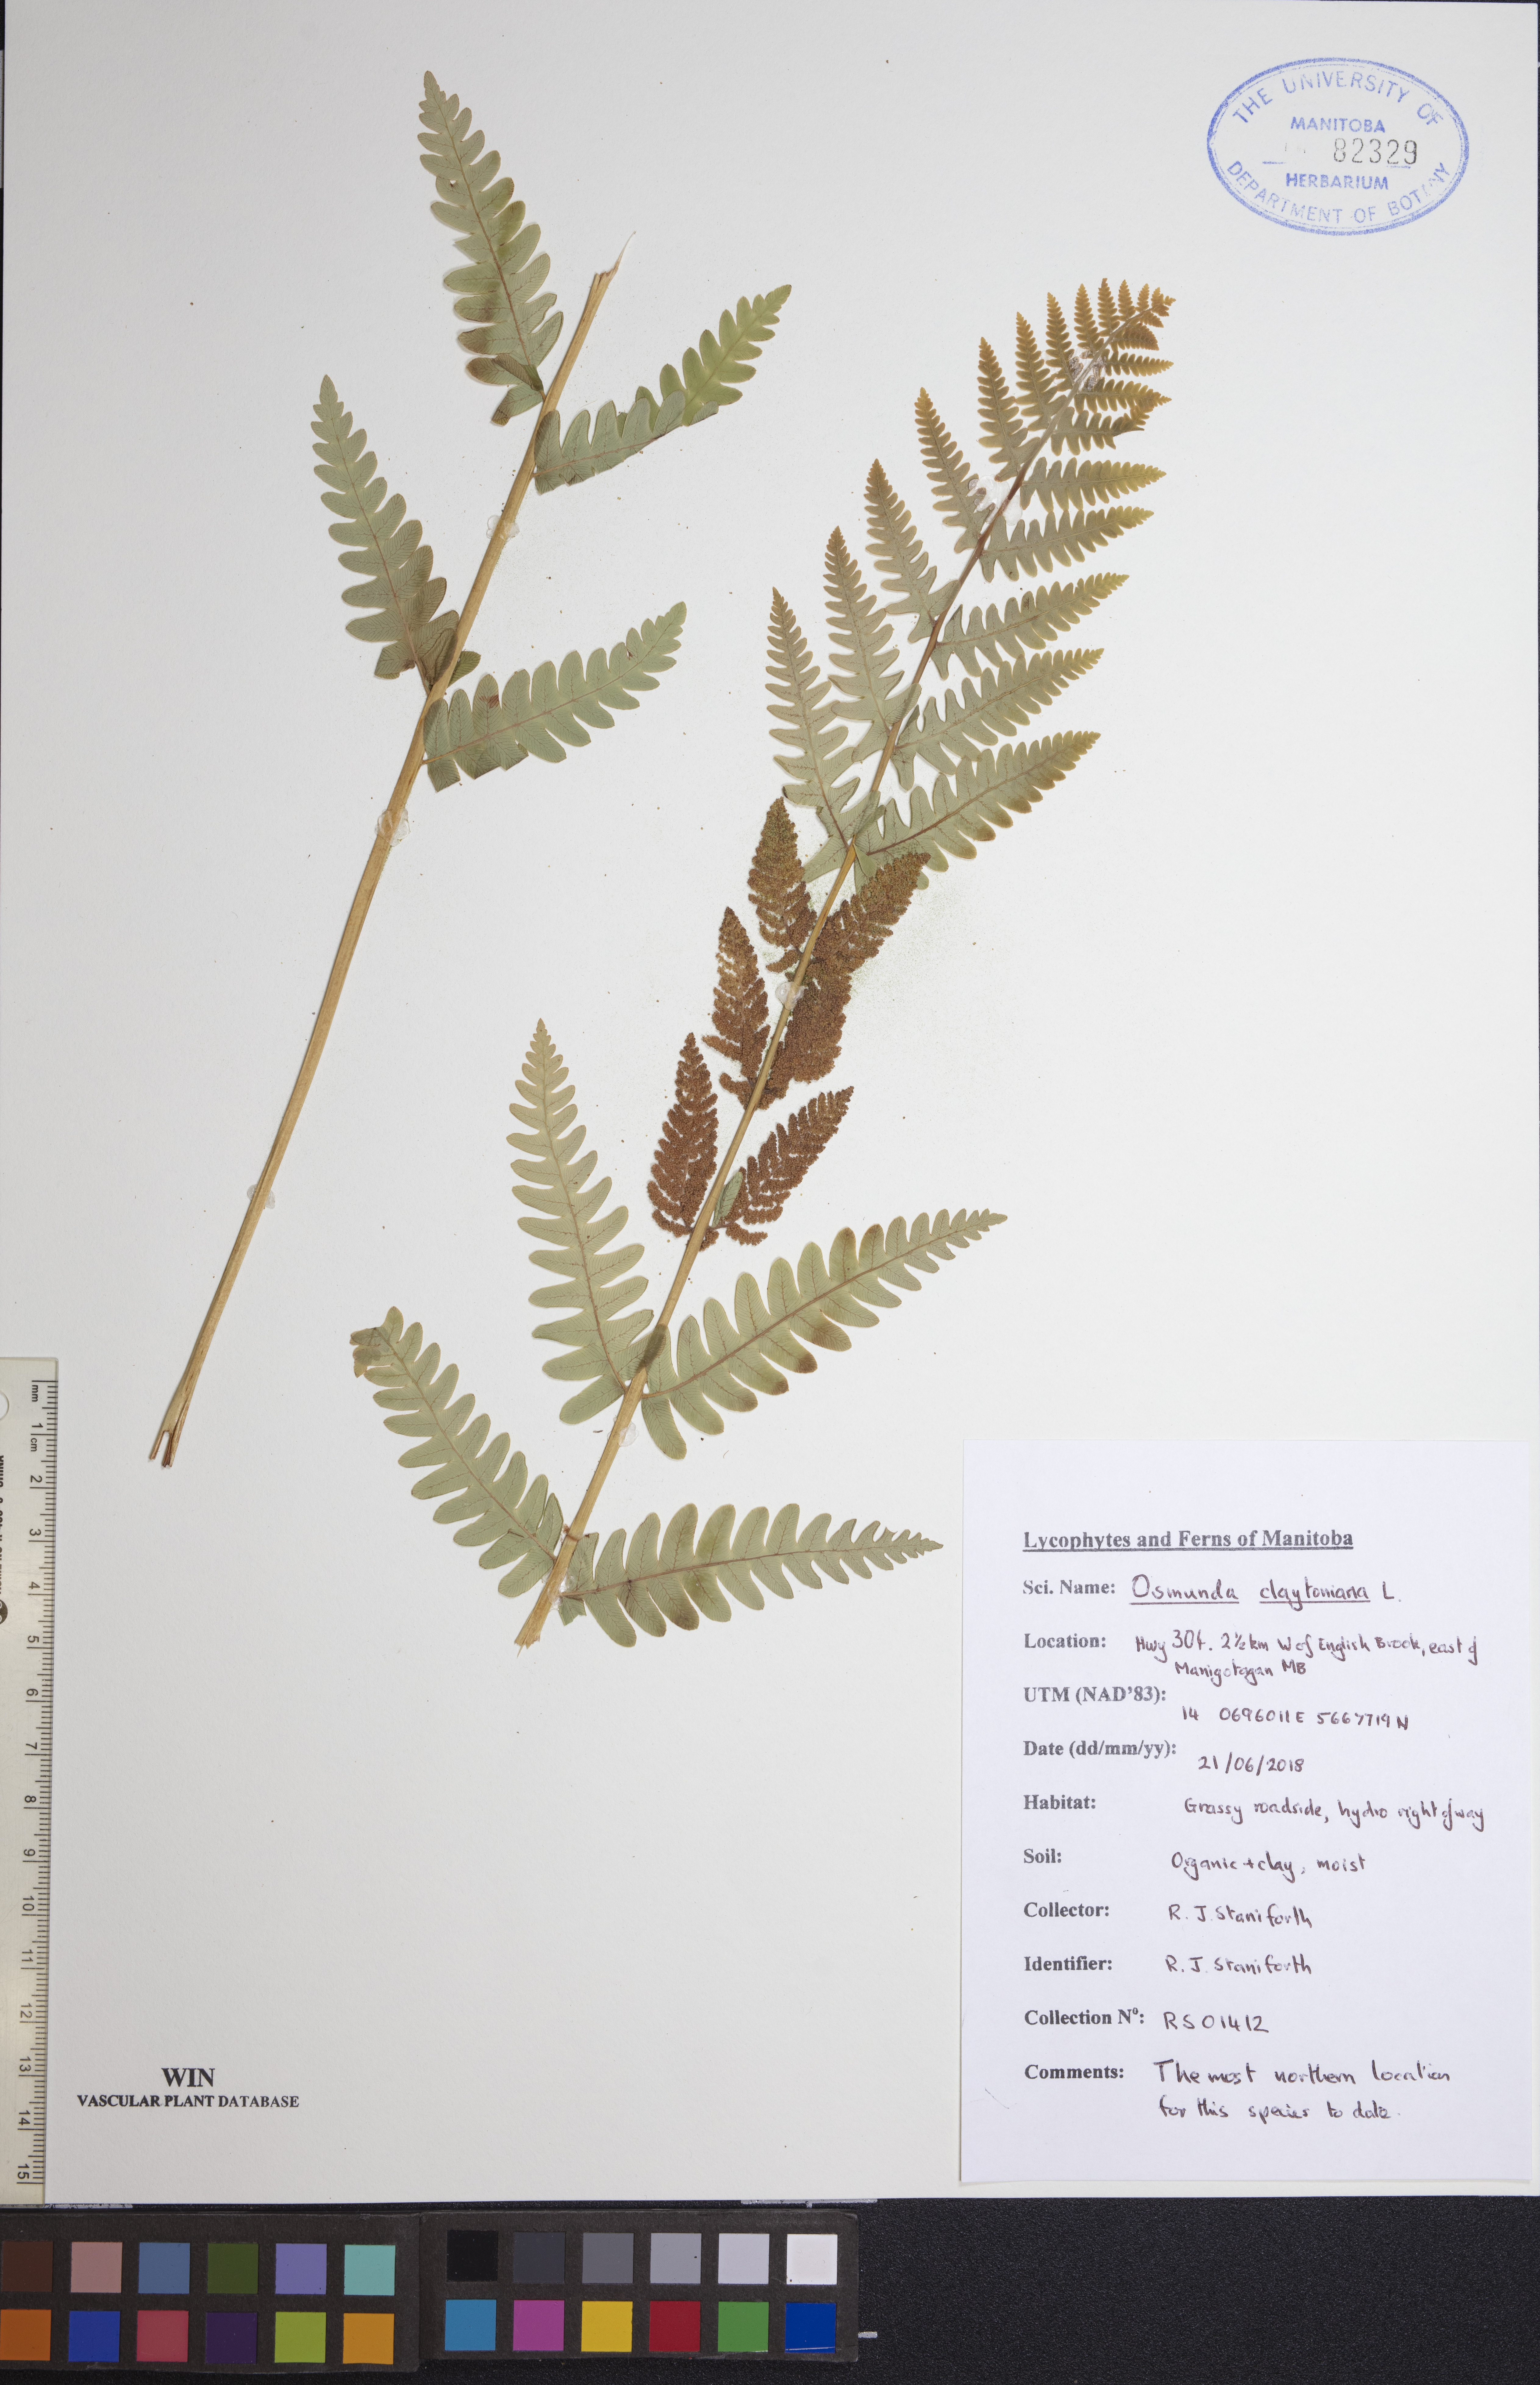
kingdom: Plantae
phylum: Tracheophyta
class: Polypodiopsida
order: Osmundales
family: Osmundaceae
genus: Claytosmunda
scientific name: Claytosmunda claytoniana
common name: Clayton's fern
